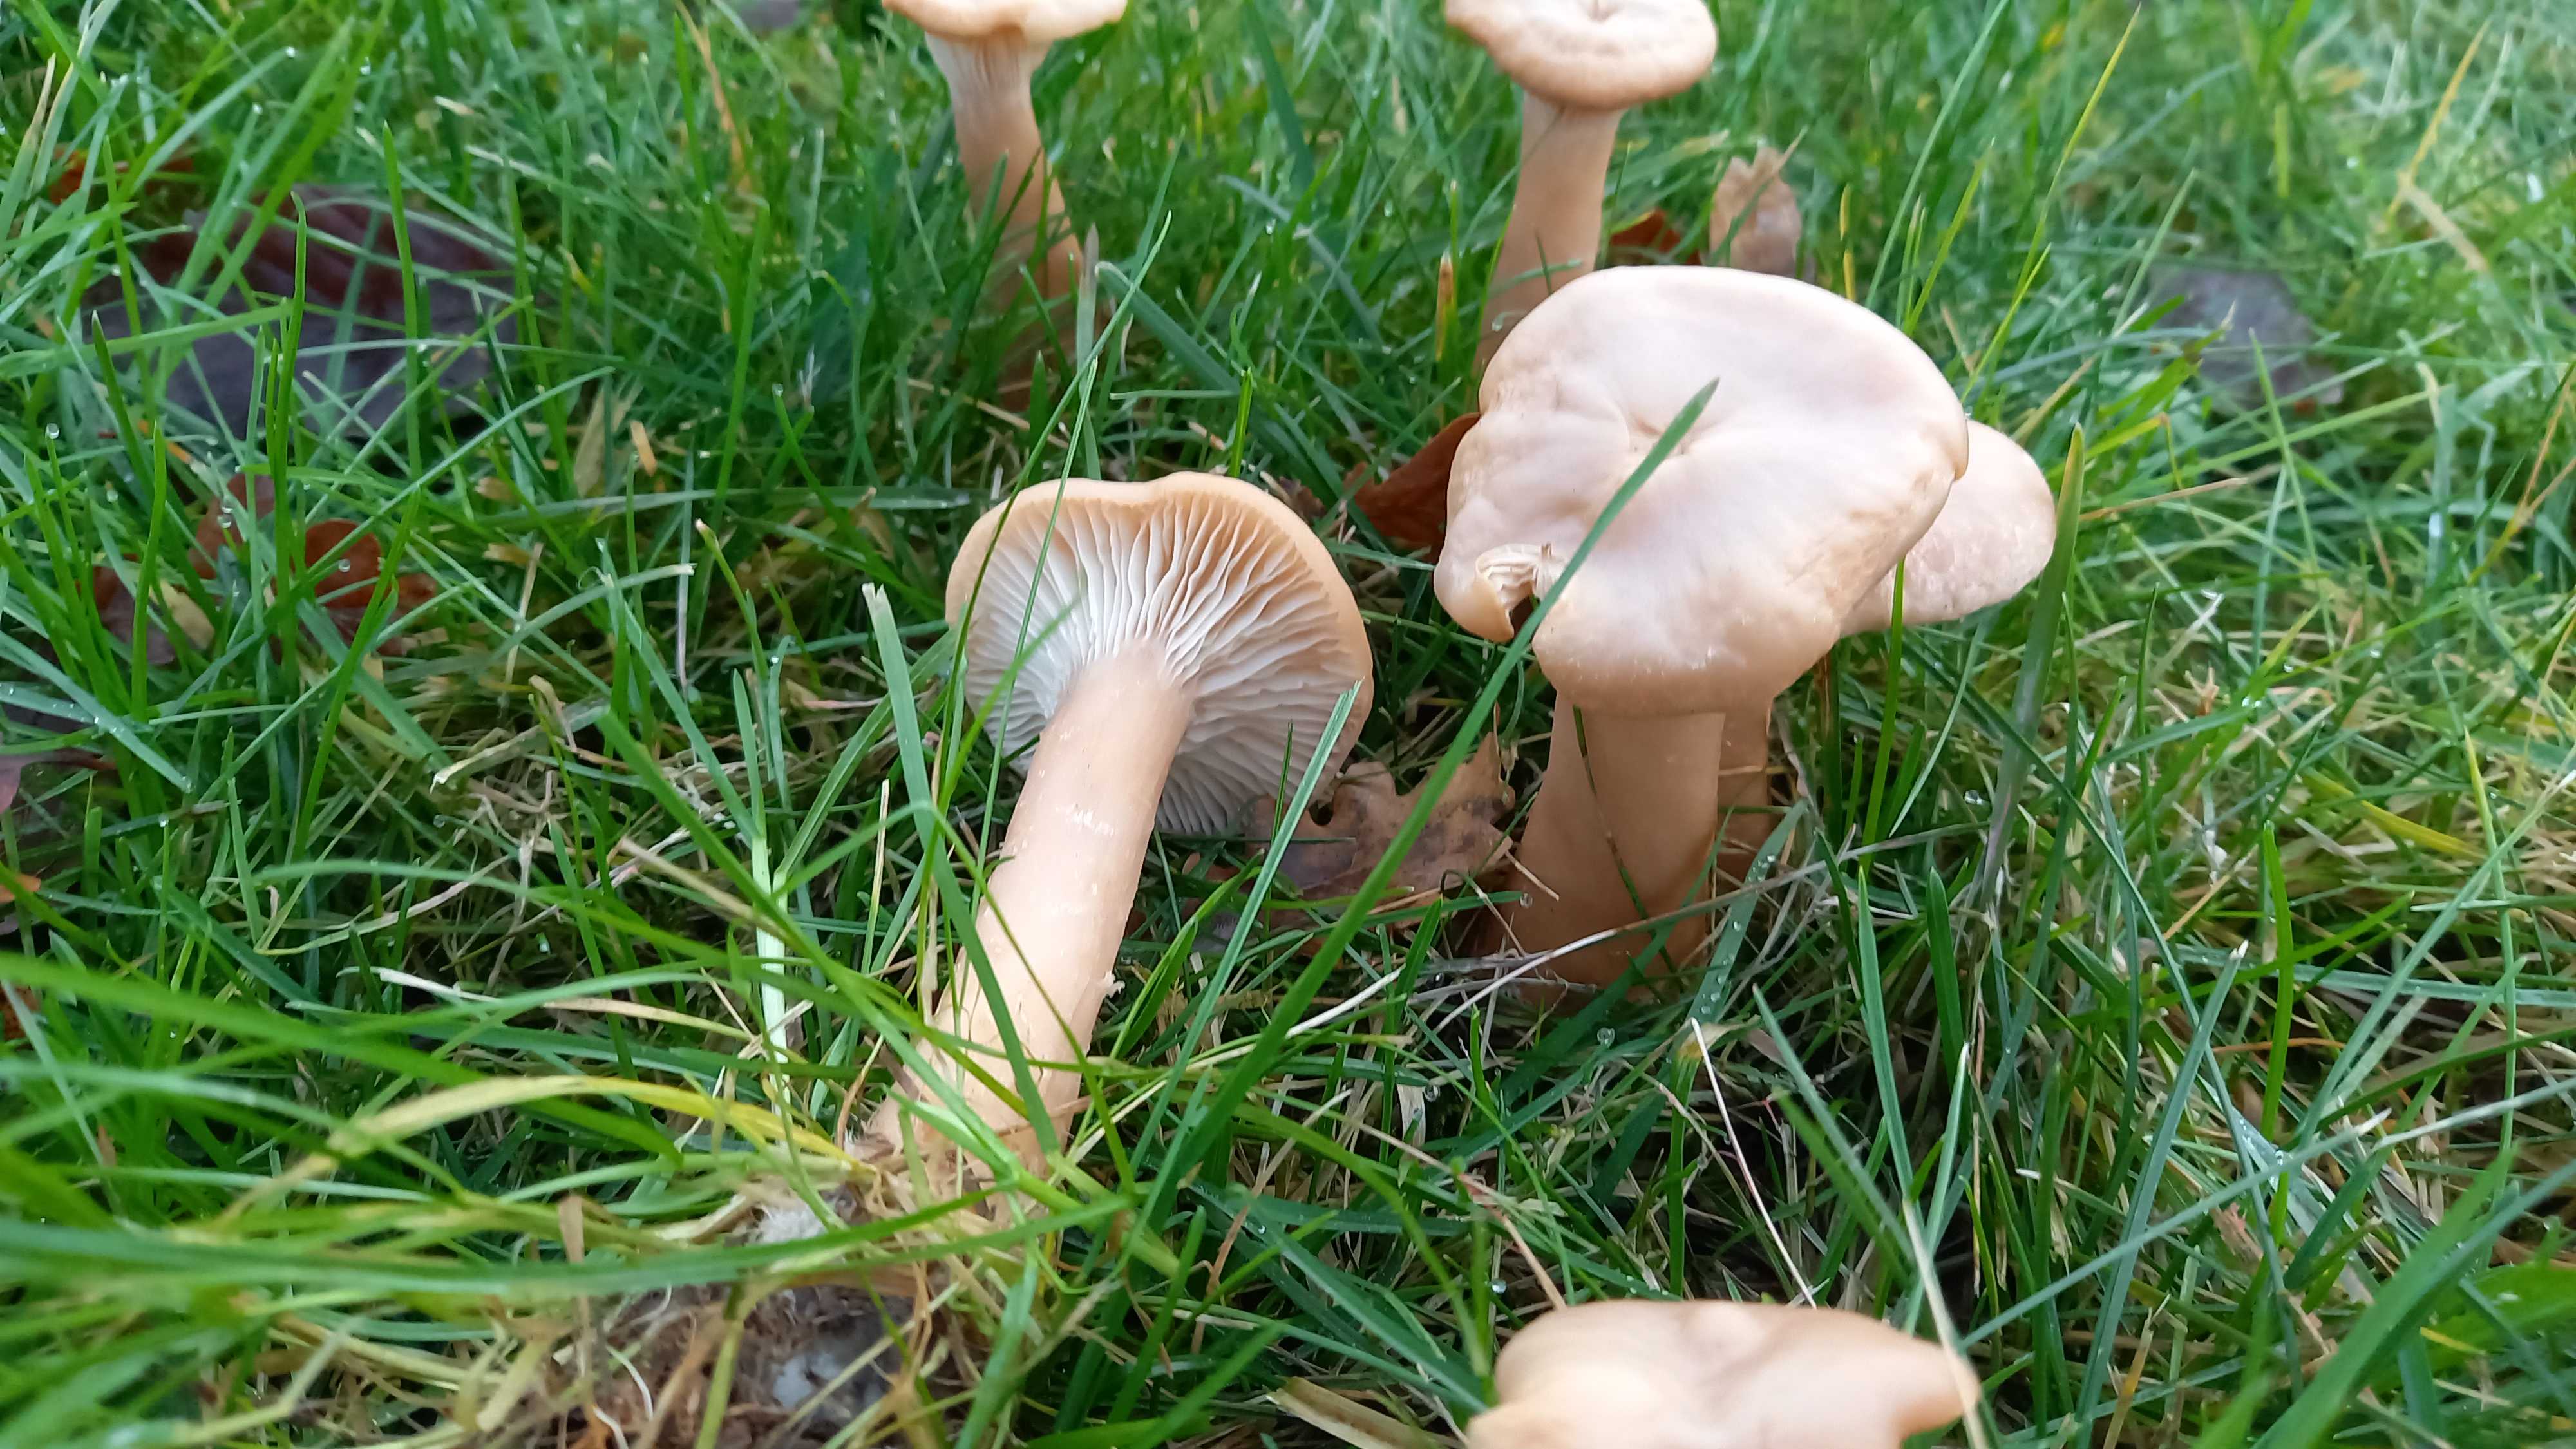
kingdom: Fungi
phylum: Basidiomycota
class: Agaricomycetes
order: Agaricales
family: Tricholomataceae
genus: Infundibulicybe
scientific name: Infundibulicybe geotropa
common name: stor tragthat
